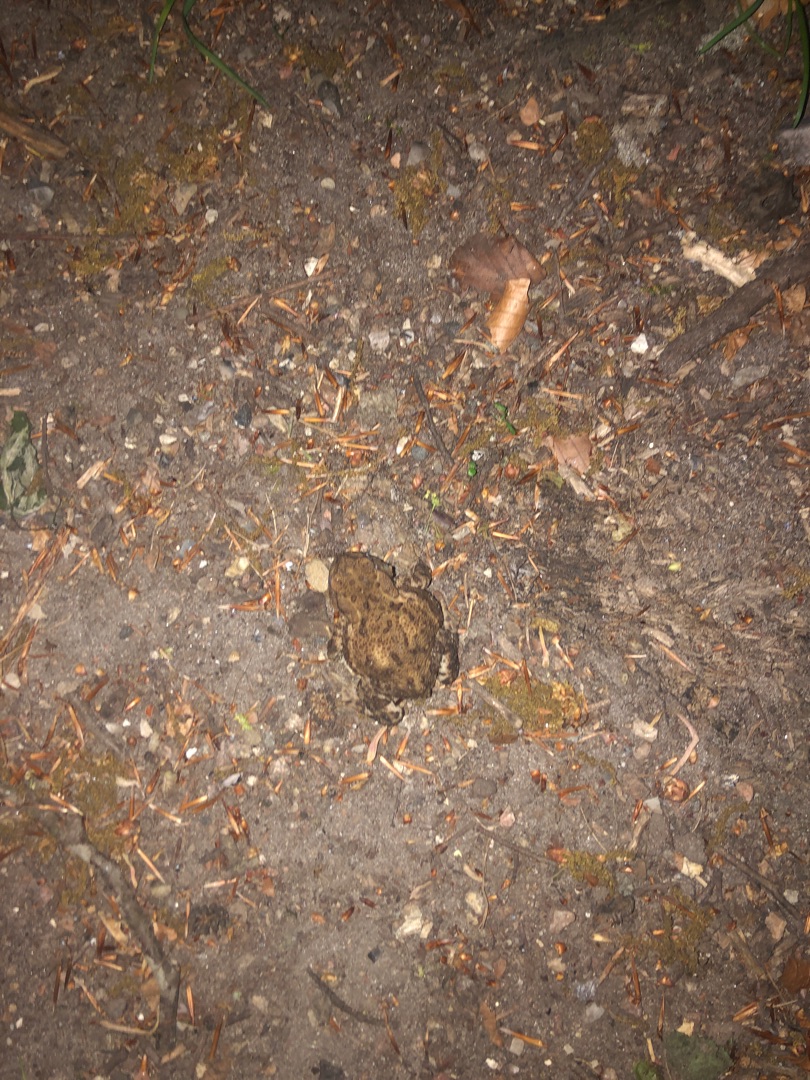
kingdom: Animalia
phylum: Chordata
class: Amphibia
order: Anura
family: Bufonidae
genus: Bufo
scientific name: Bufo bufo
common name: Skrubtudse
